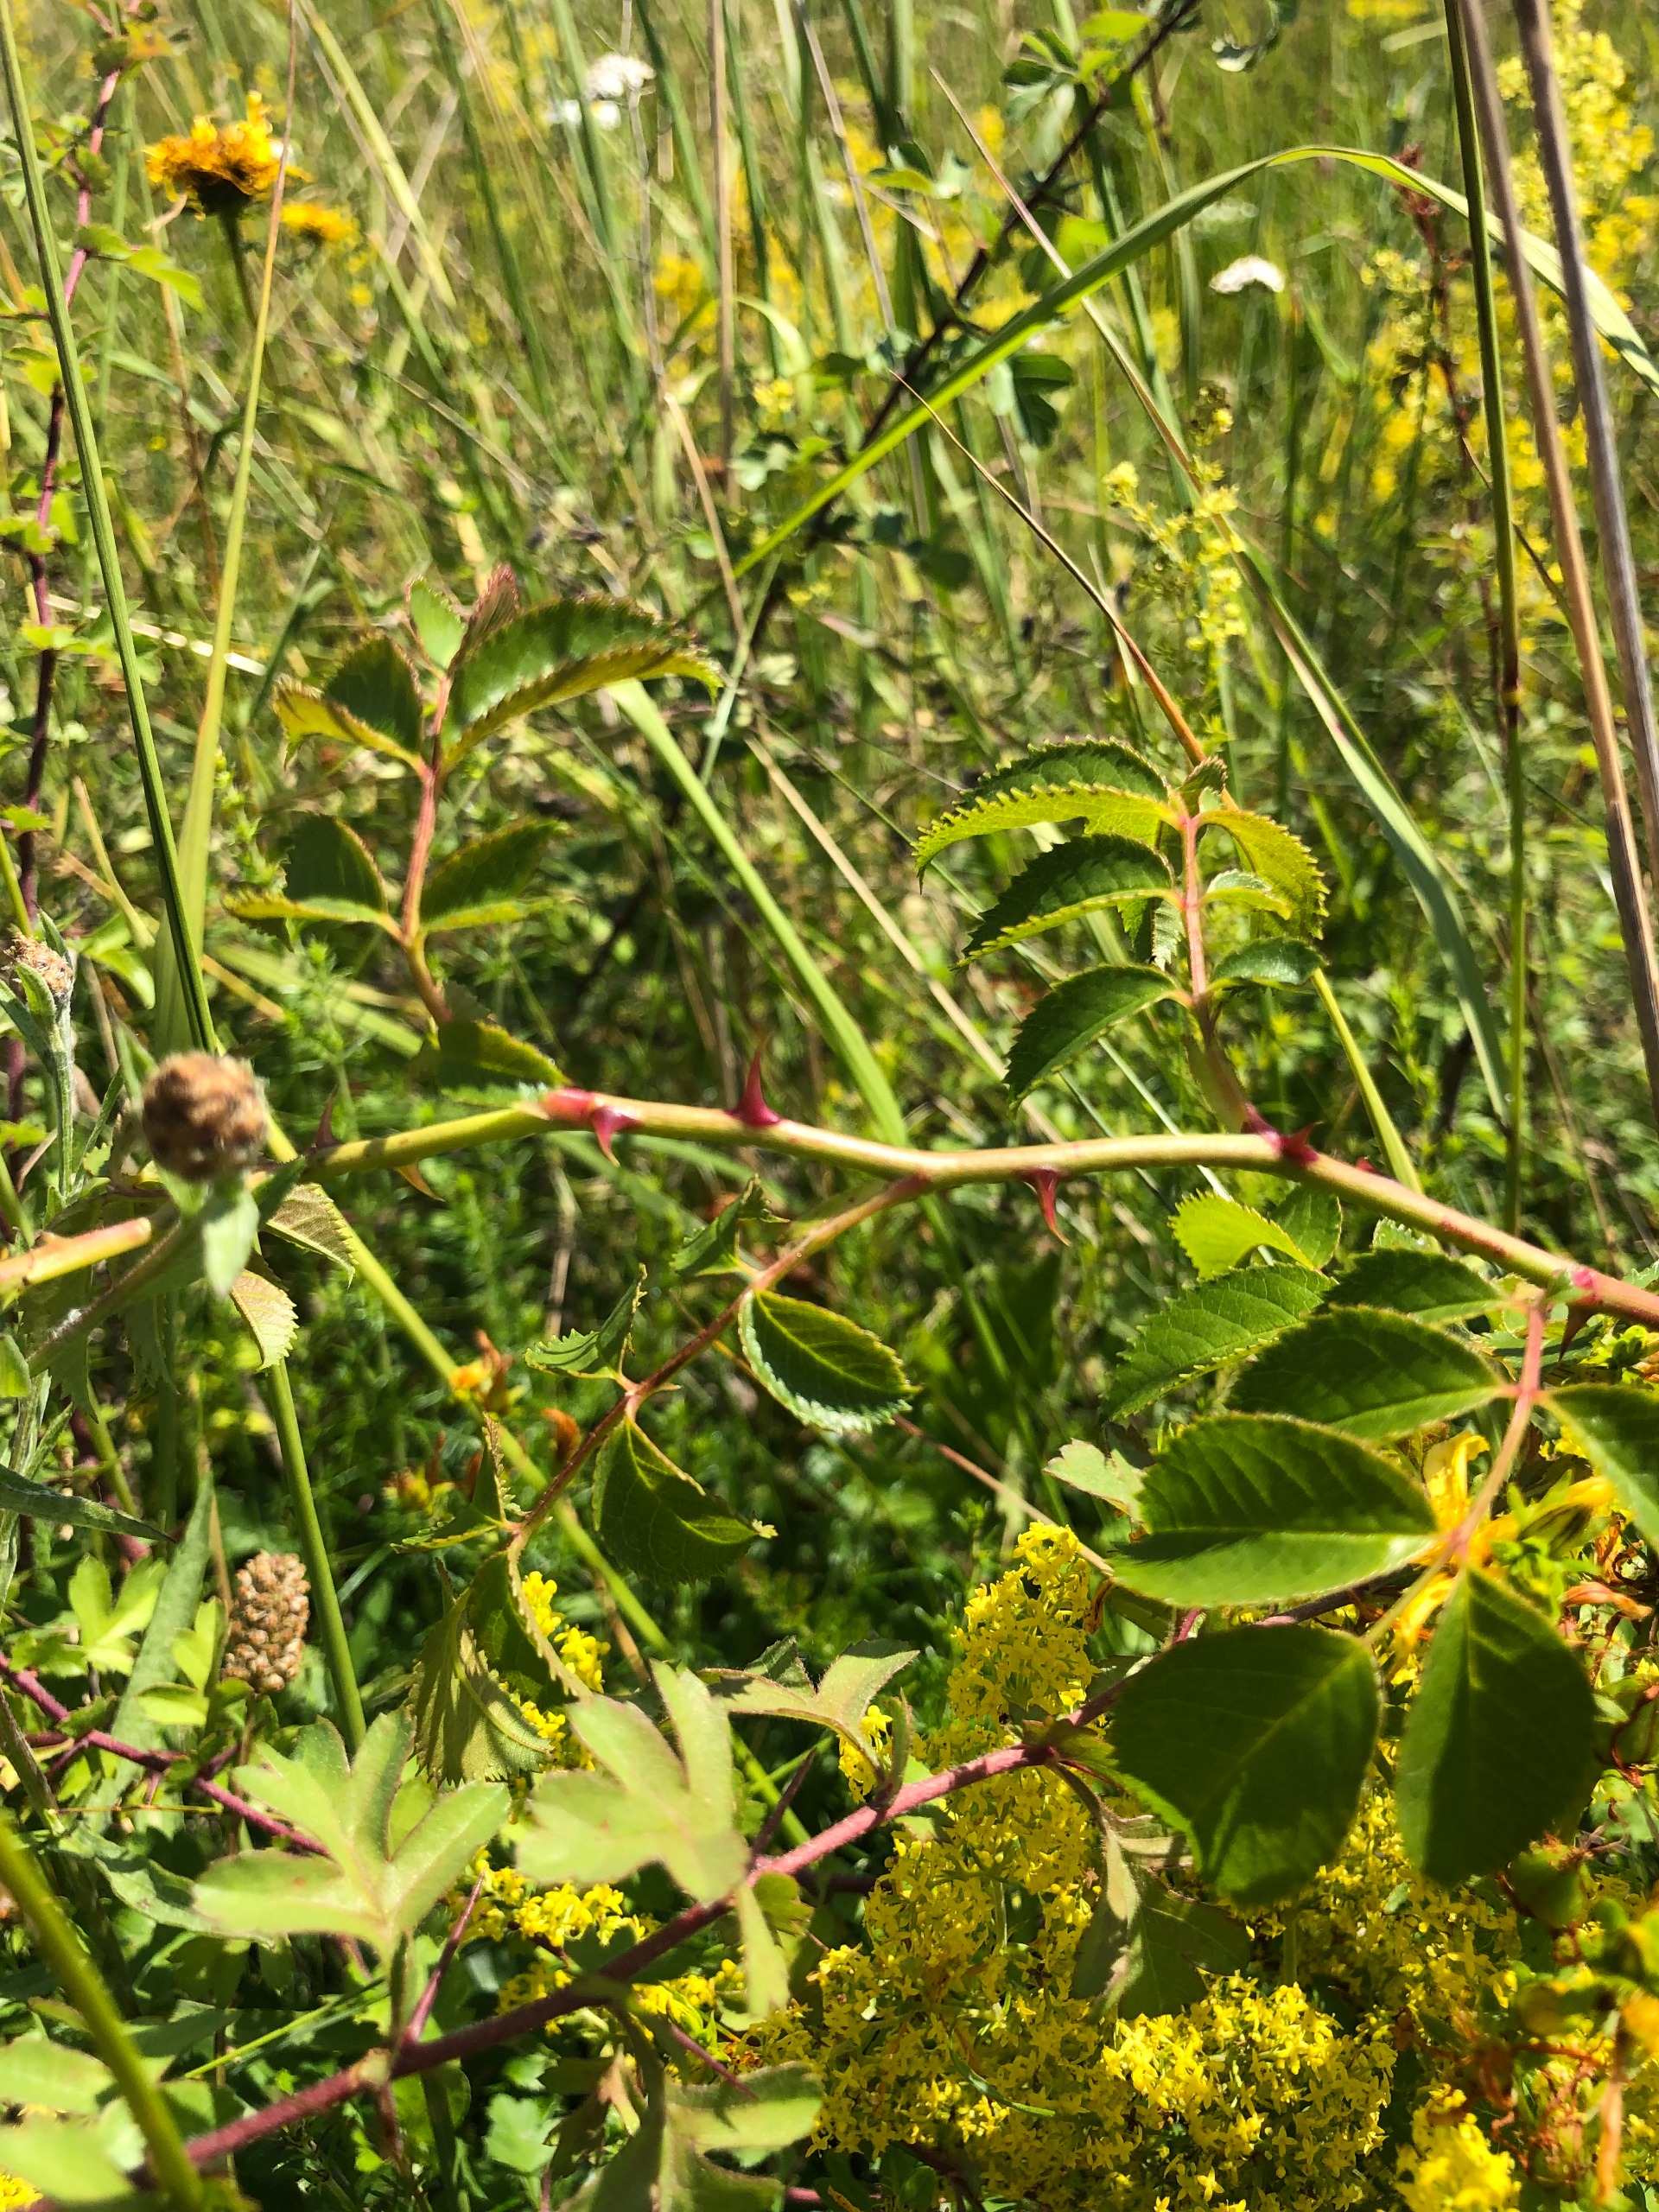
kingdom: Plantae
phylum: Tracheophyta
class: Magnoliopsida
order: Rosales
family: Rosaceae
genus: Rosa
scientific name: Rosa
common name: Roseslægten
